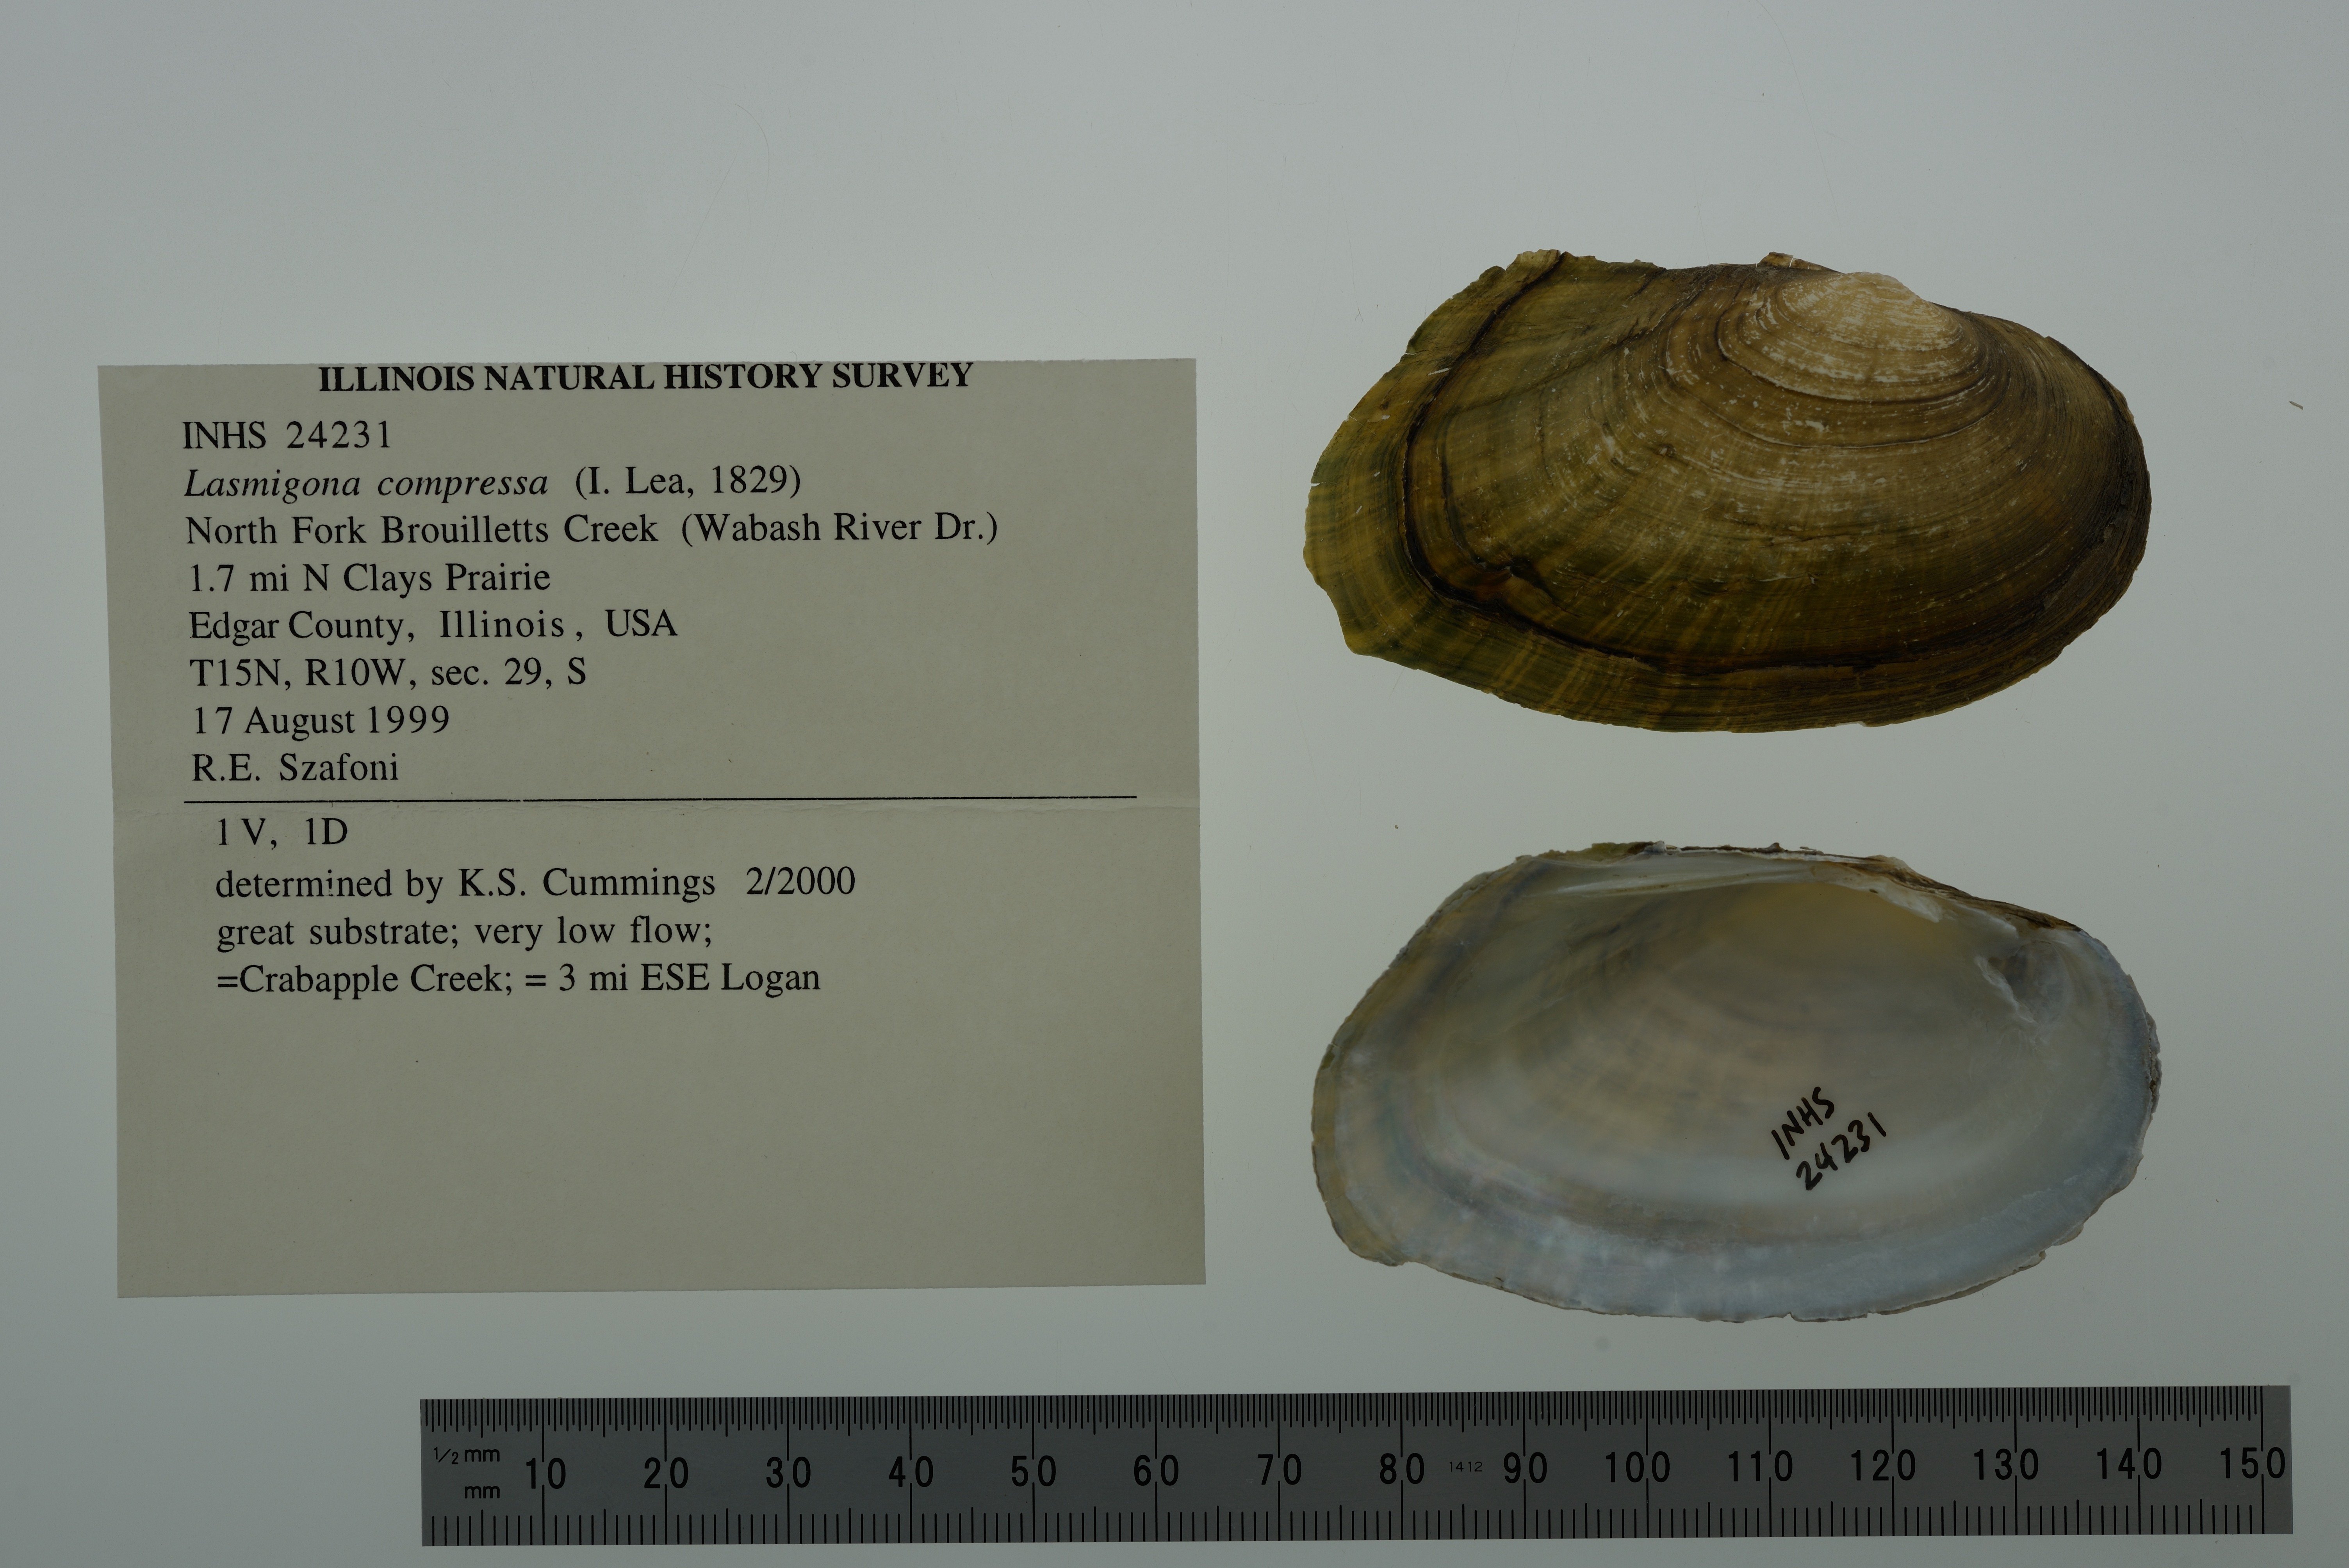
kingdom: Animalia
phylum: Mollusca
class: Bivalvia
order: Unionida
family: Unionidae
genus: Lasmigona
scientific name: Lasmigona compressa
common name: Creek heelsplitter
